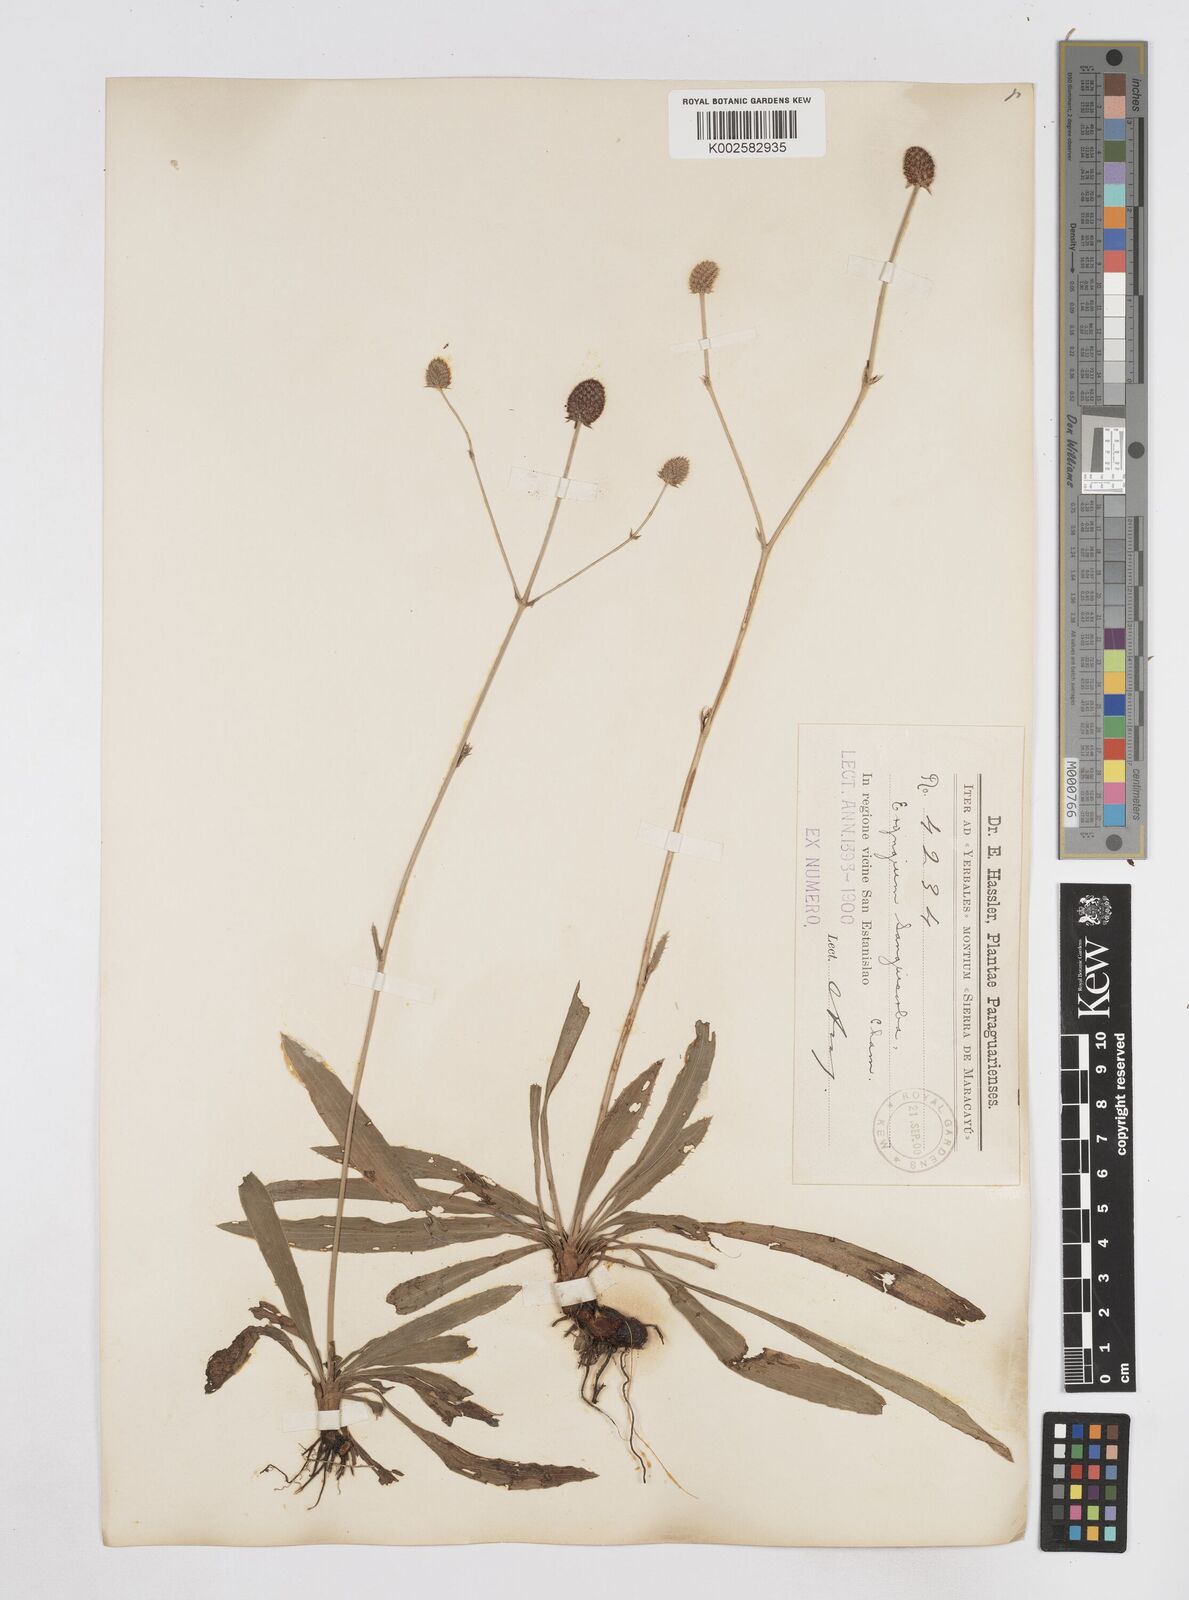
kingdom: Plantae
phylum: Tracheophyta
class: Magnoliopsida
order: Apiales
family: Apiaceae
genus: Eryngium
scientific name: Eryngium sanguisorba
